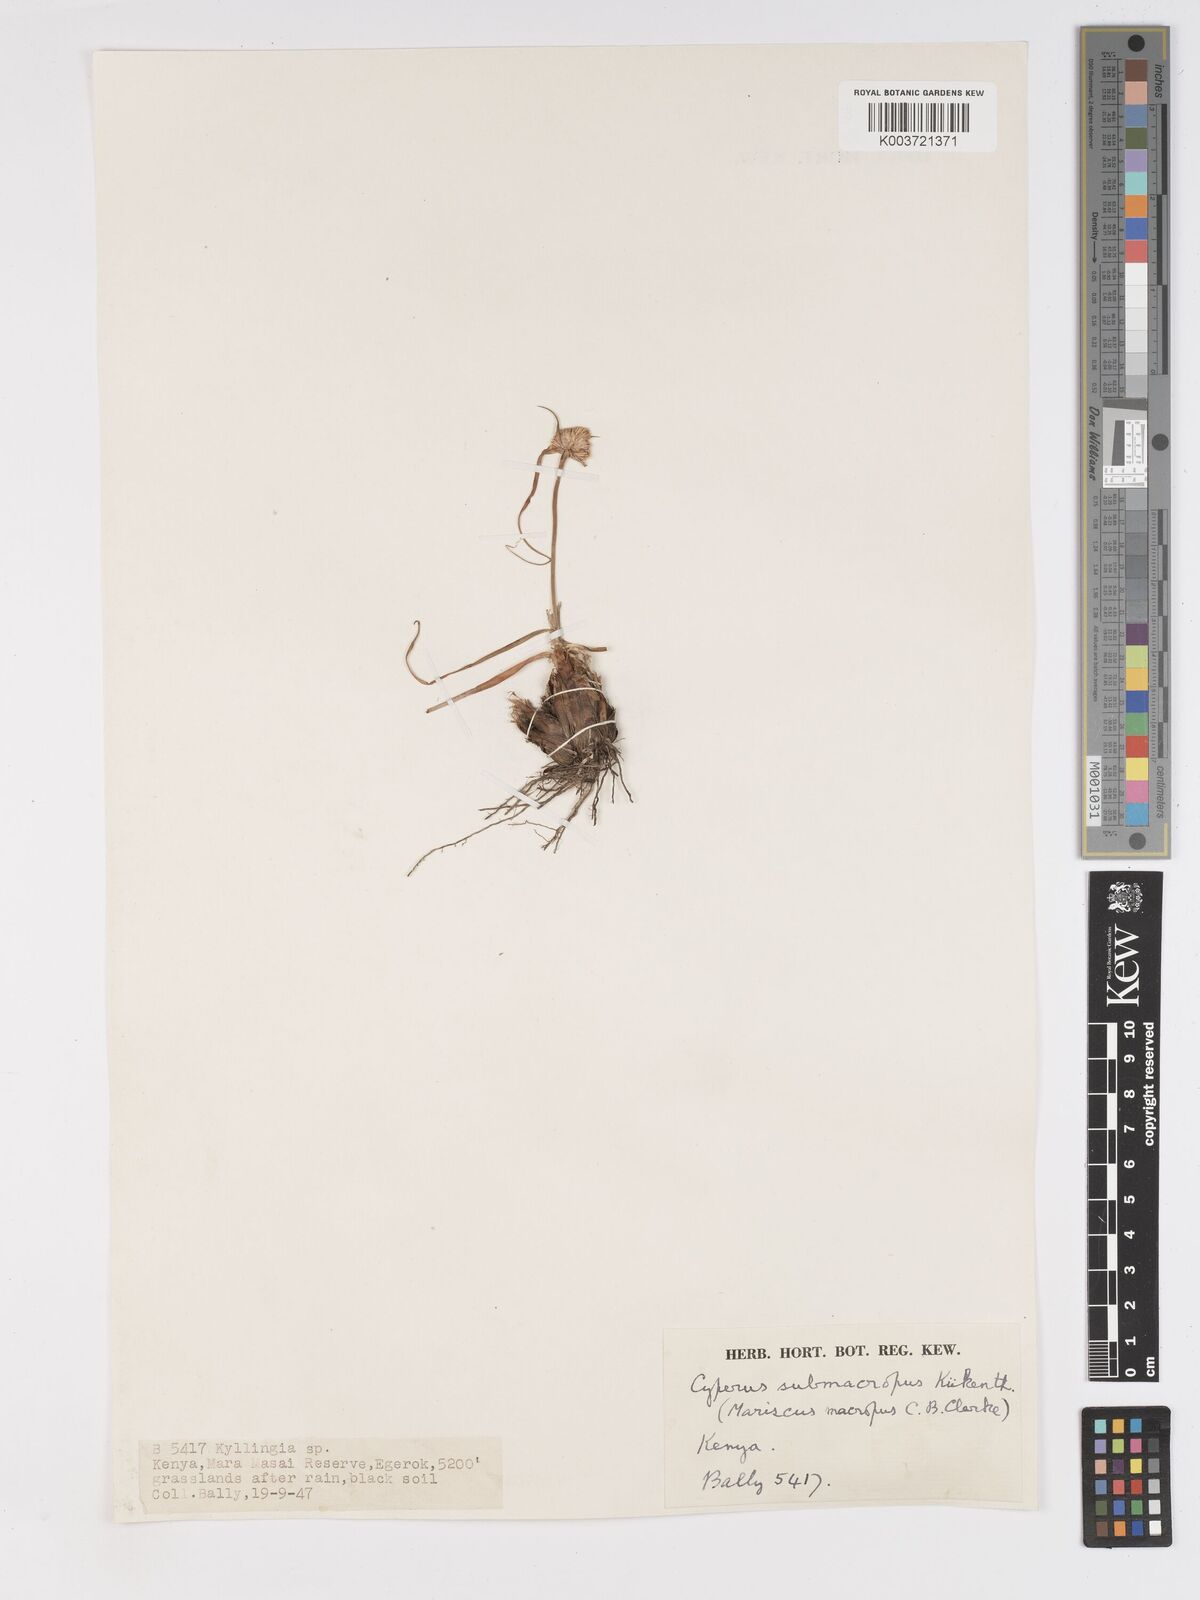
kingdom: Plantae
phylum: Tracheophyta
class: Liliopsida
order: Poales
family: Cyperaceae
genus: Cyperus
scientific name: Cyperus mollipes
